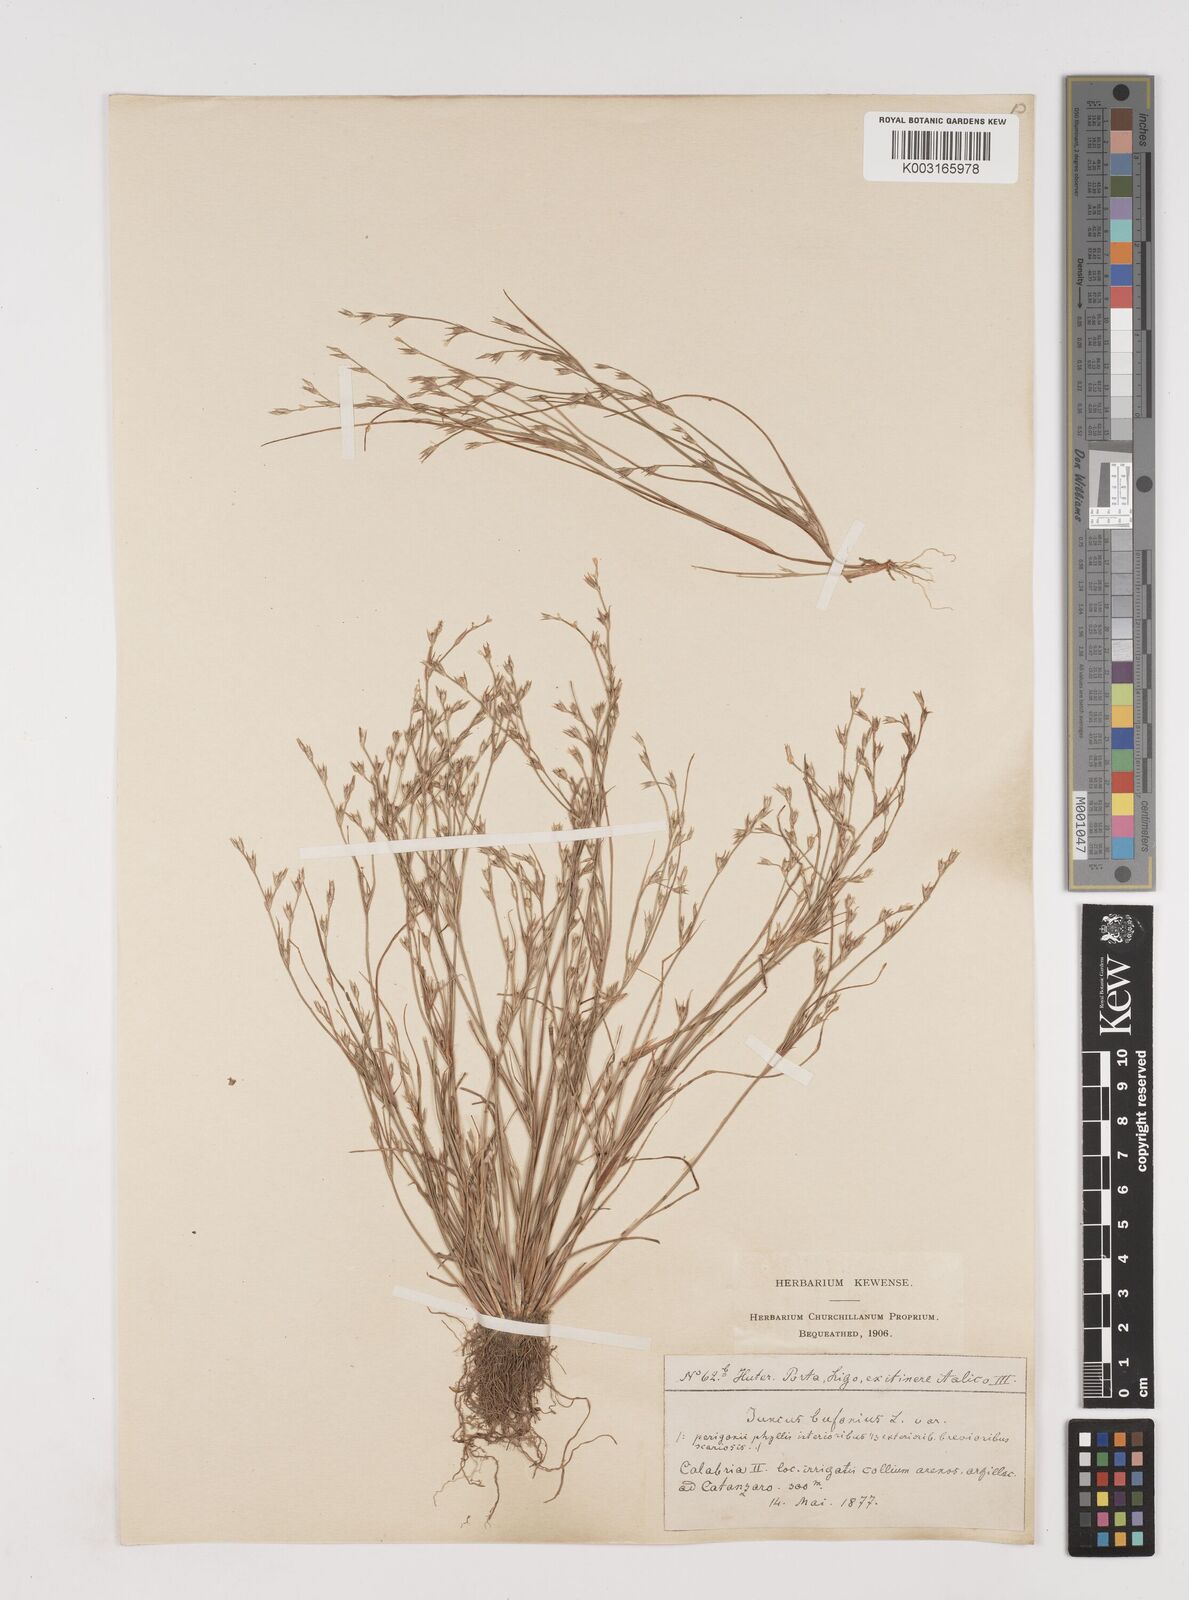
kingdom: Plantae
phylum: Tracheophyta
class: Liliopsida
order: Poales
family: Juncaceae
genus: Juncus
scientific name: Juncus bufonius
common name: Toad rush
